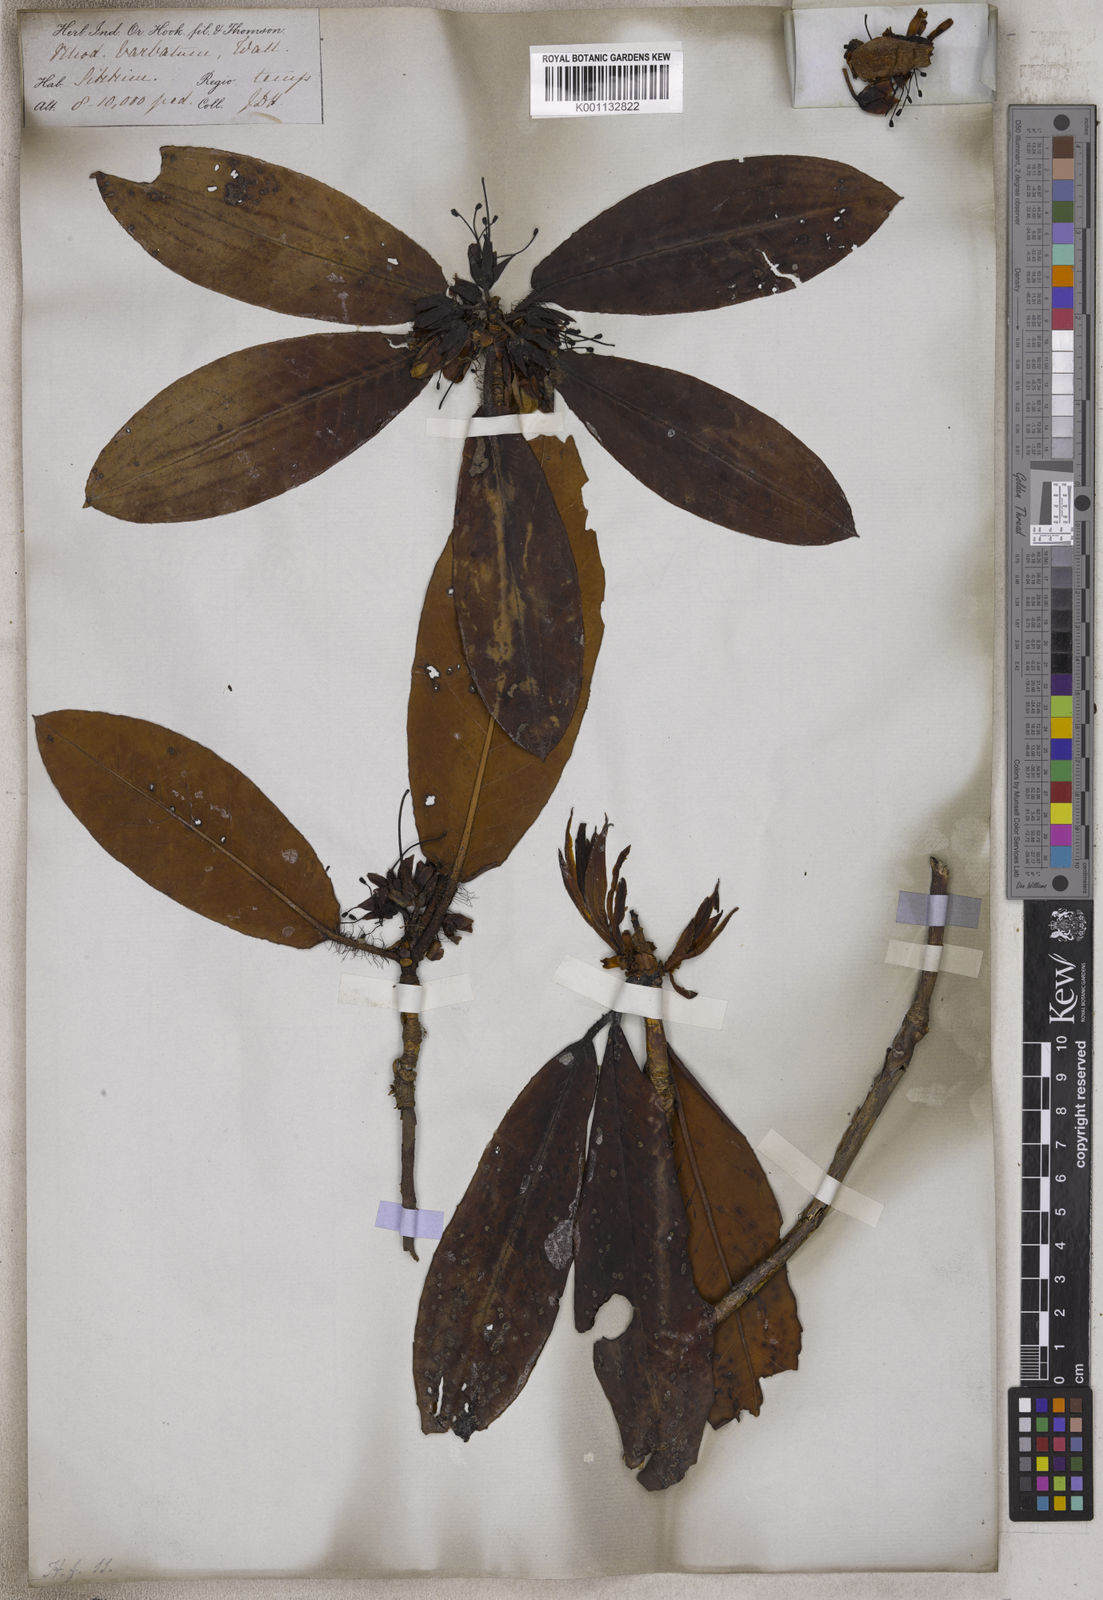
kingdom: Plantae
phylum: Tracheophyta
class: Magnoliopsida
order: Ericales
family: Ericaceae
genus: Rhododendron
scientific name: Rhododendron barbatum
